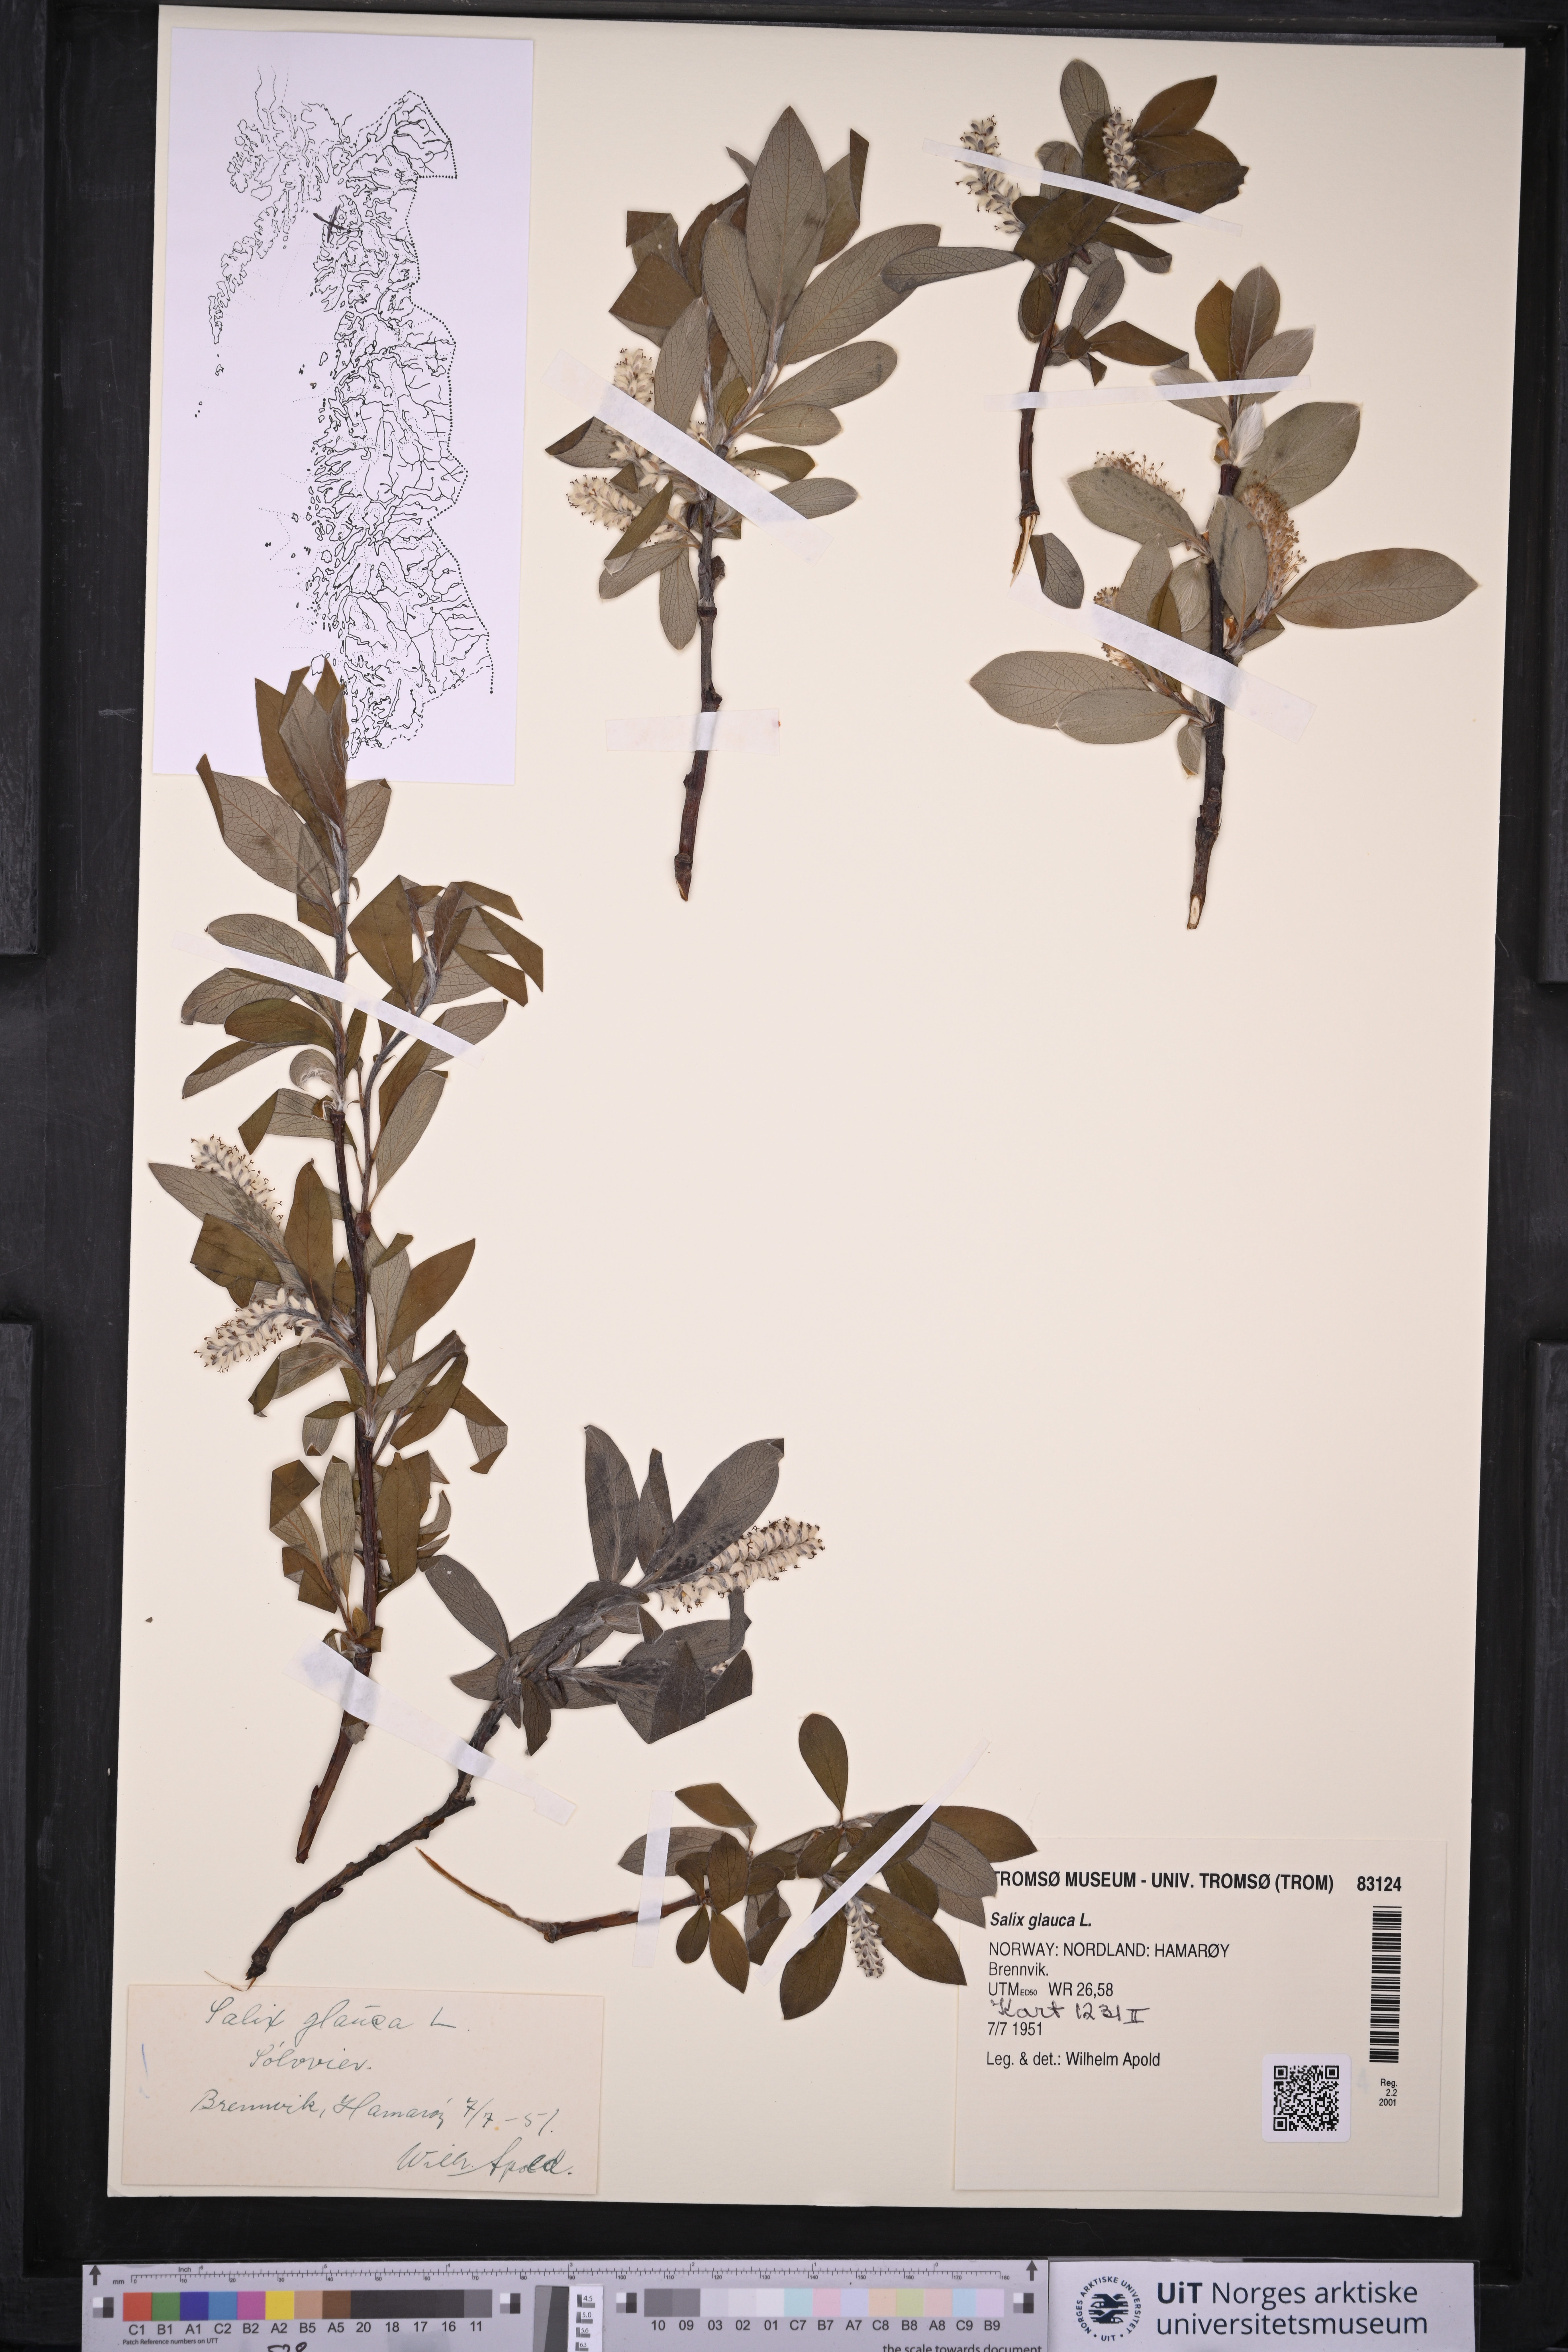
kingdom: Plantae
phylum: Tracheophyta
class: Magnoliopsida
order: Malpighiales
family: Salicaceae
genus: Salix
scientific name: Salix glauca
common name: Glaucous willow
